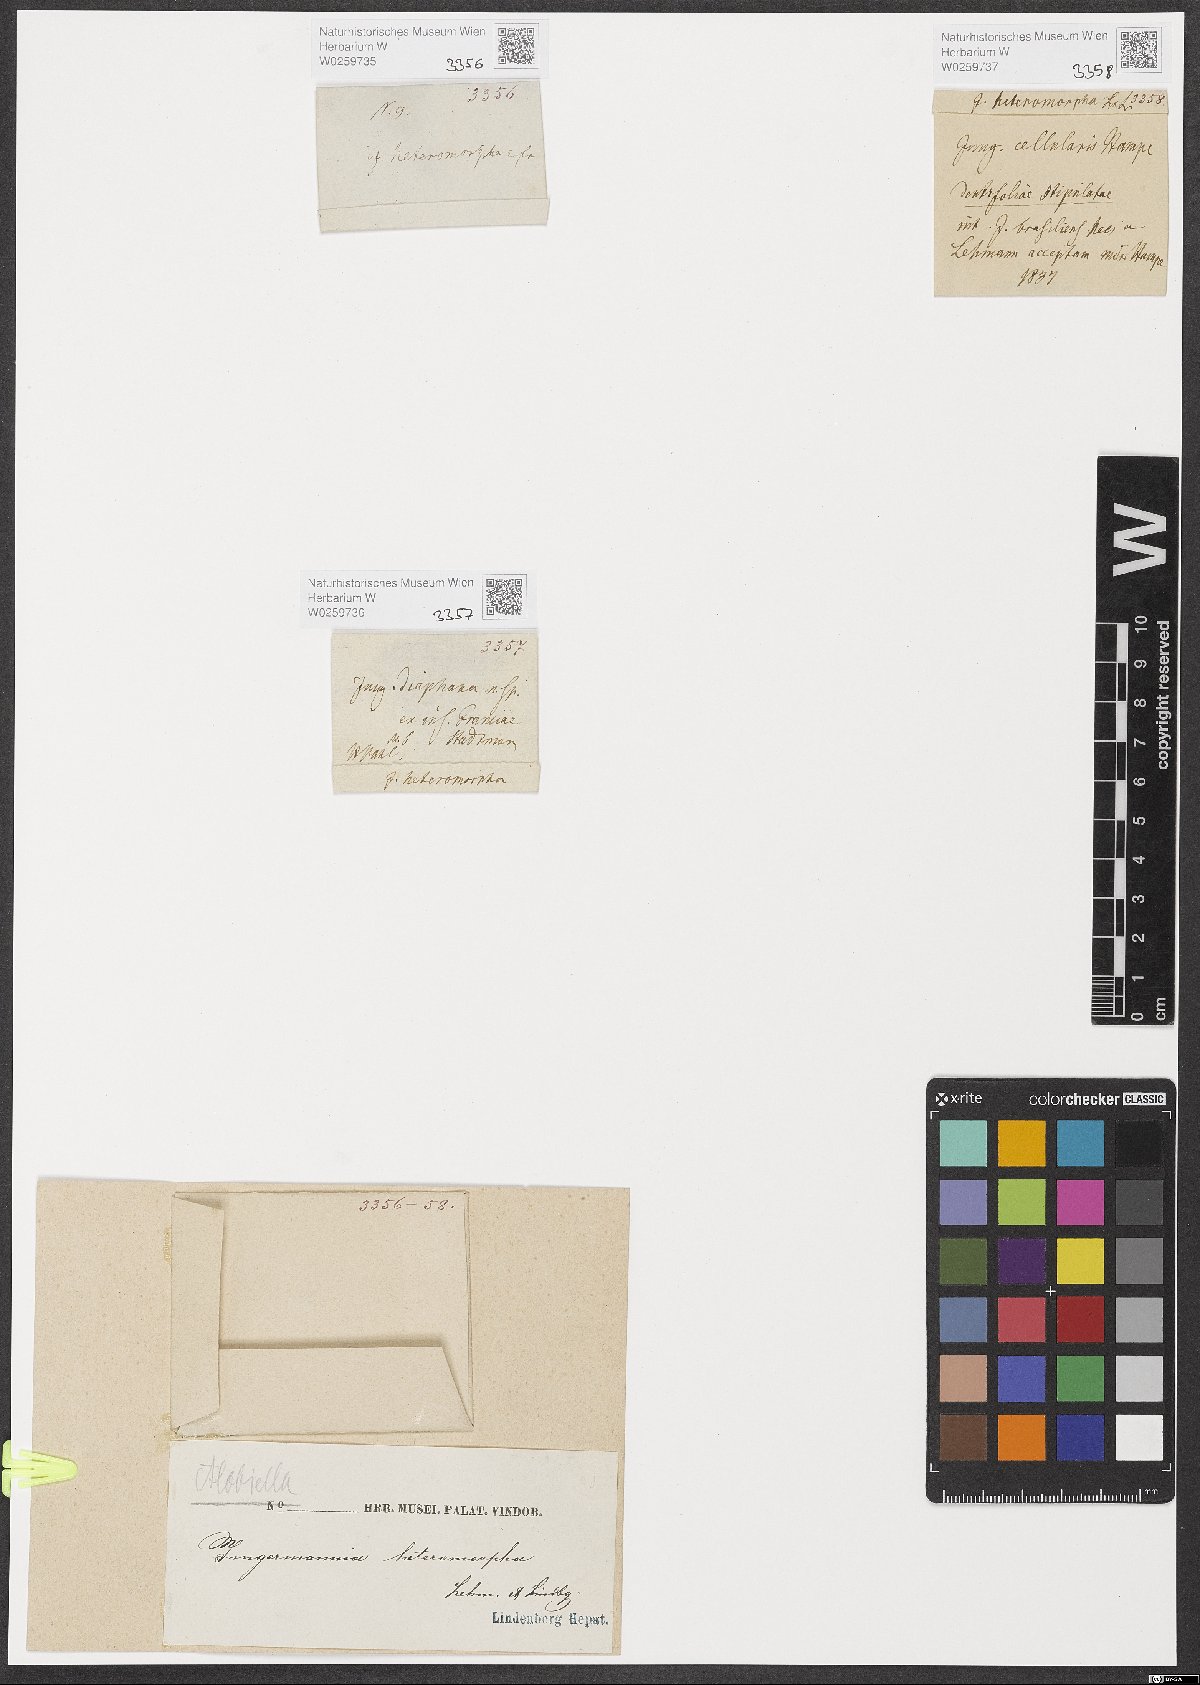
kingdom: Plantae
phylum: Marchantiophyta
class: Jungermanniopsida
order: Jungermanniales
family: Cephaloziaceae
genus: Alobiellopsis
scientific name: Alobiellopsis heteromorpha
